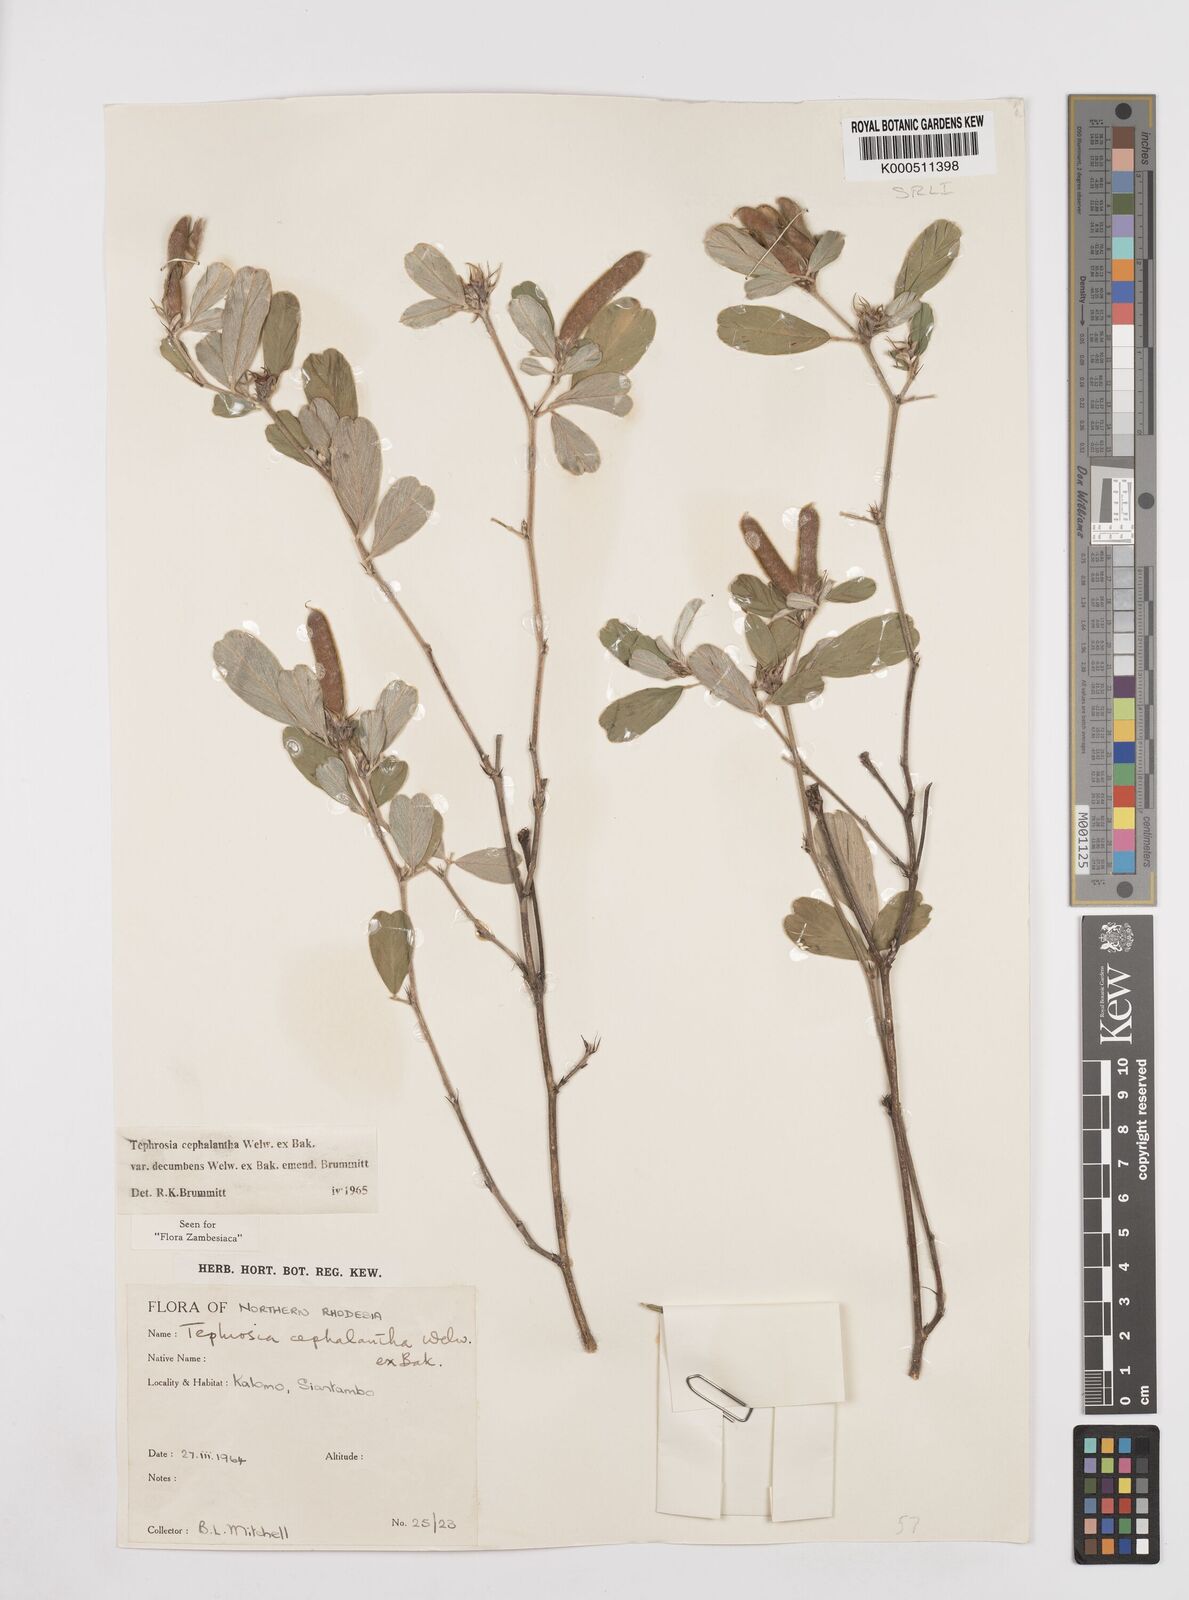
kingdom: Plantae
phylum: Tracheophyta
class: Magnoliopsida
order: Fabales
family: Fabaceae
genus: Tephrosia
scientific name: Tephrosia
